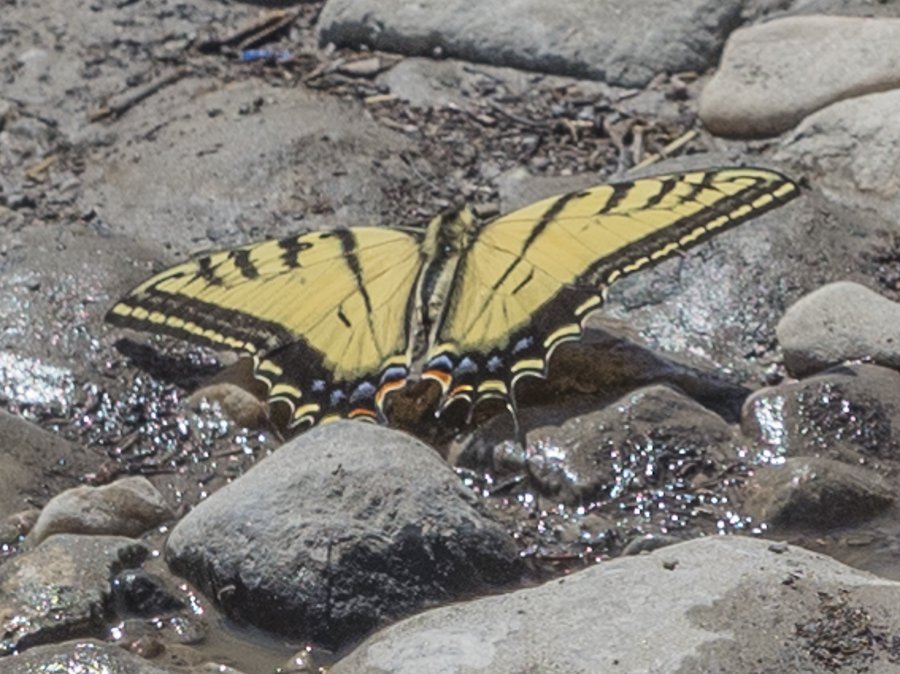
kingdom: Animalia
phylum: Arthropoda
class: Insecta
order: Lepidoptera
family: Papilionidae
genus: Papilio
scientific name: Papilio multicaudata
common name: Two-tailed Swallowtail
